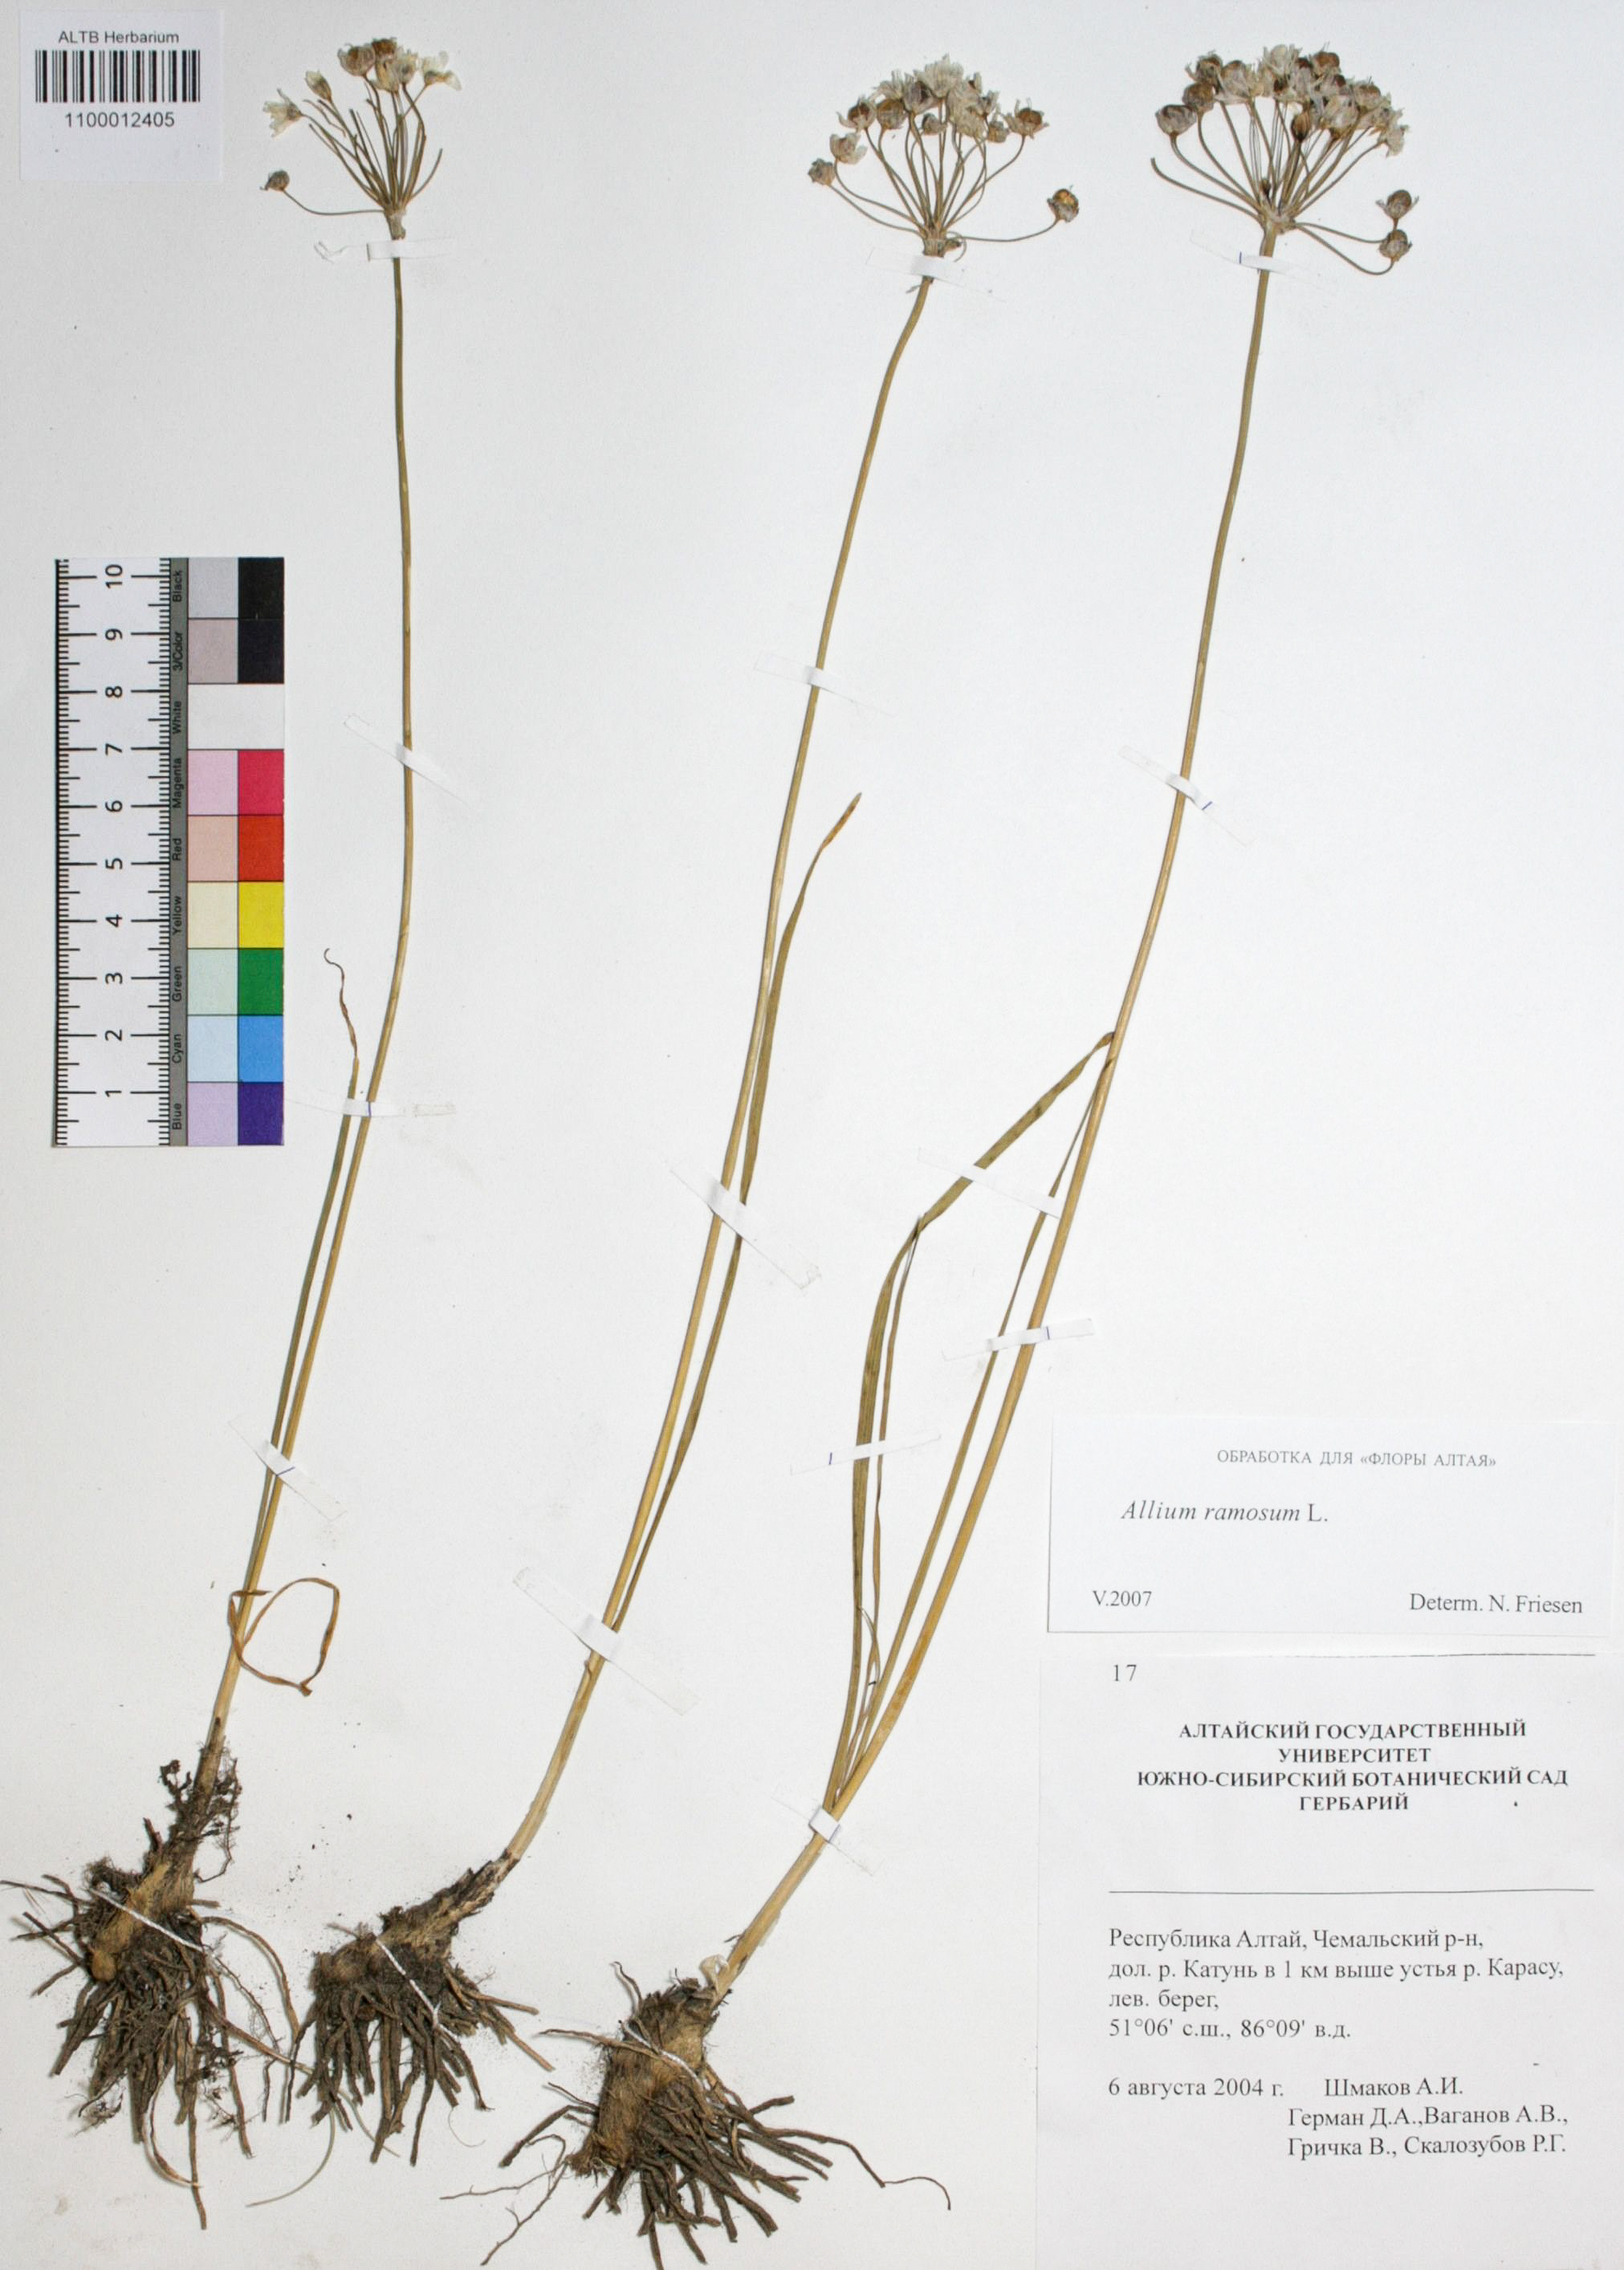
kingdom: Plantae
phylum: Tracheophyta
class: Liliopsida
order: Asparagales
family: Amaryllidaceae
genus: Allium
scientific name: Allium ramosum
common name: Fragrant garlic
